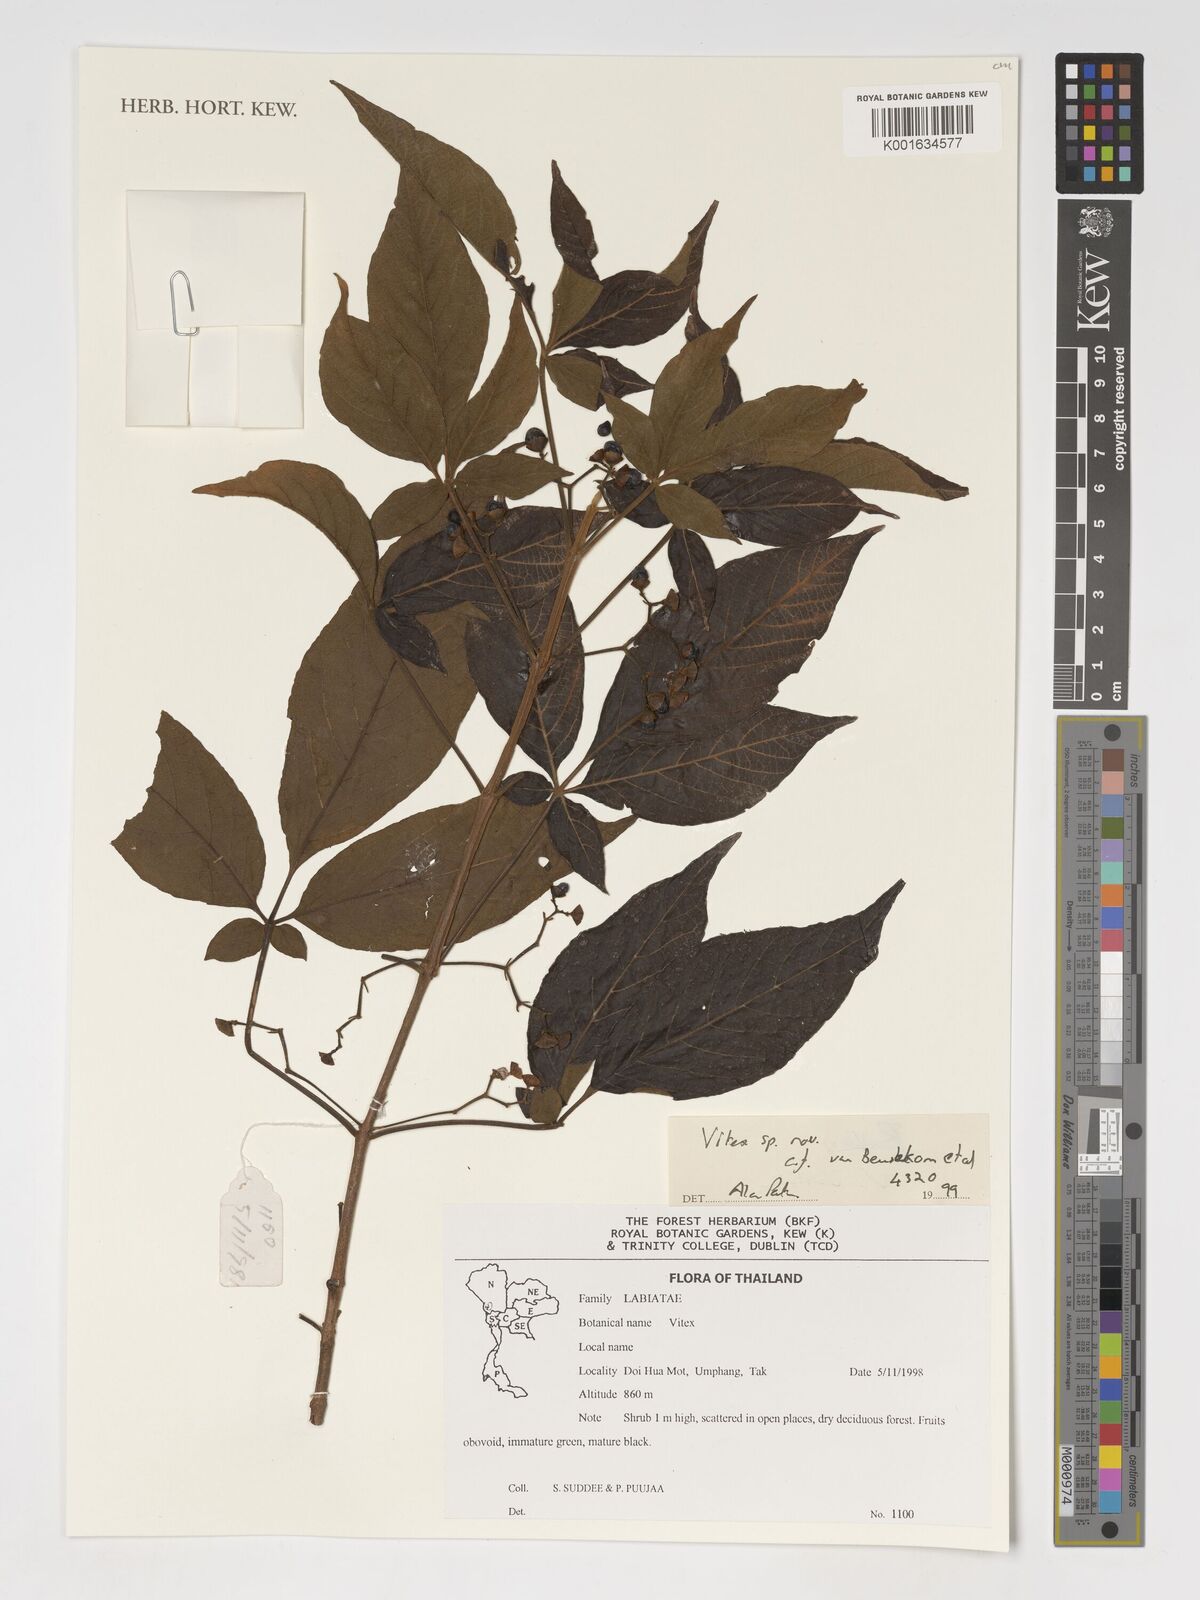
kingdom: Plantae
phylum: Tracheophyta
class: Magnoliopsida
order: Lamiales
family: Lamiaceae
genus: Vitex
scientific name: Vitex
